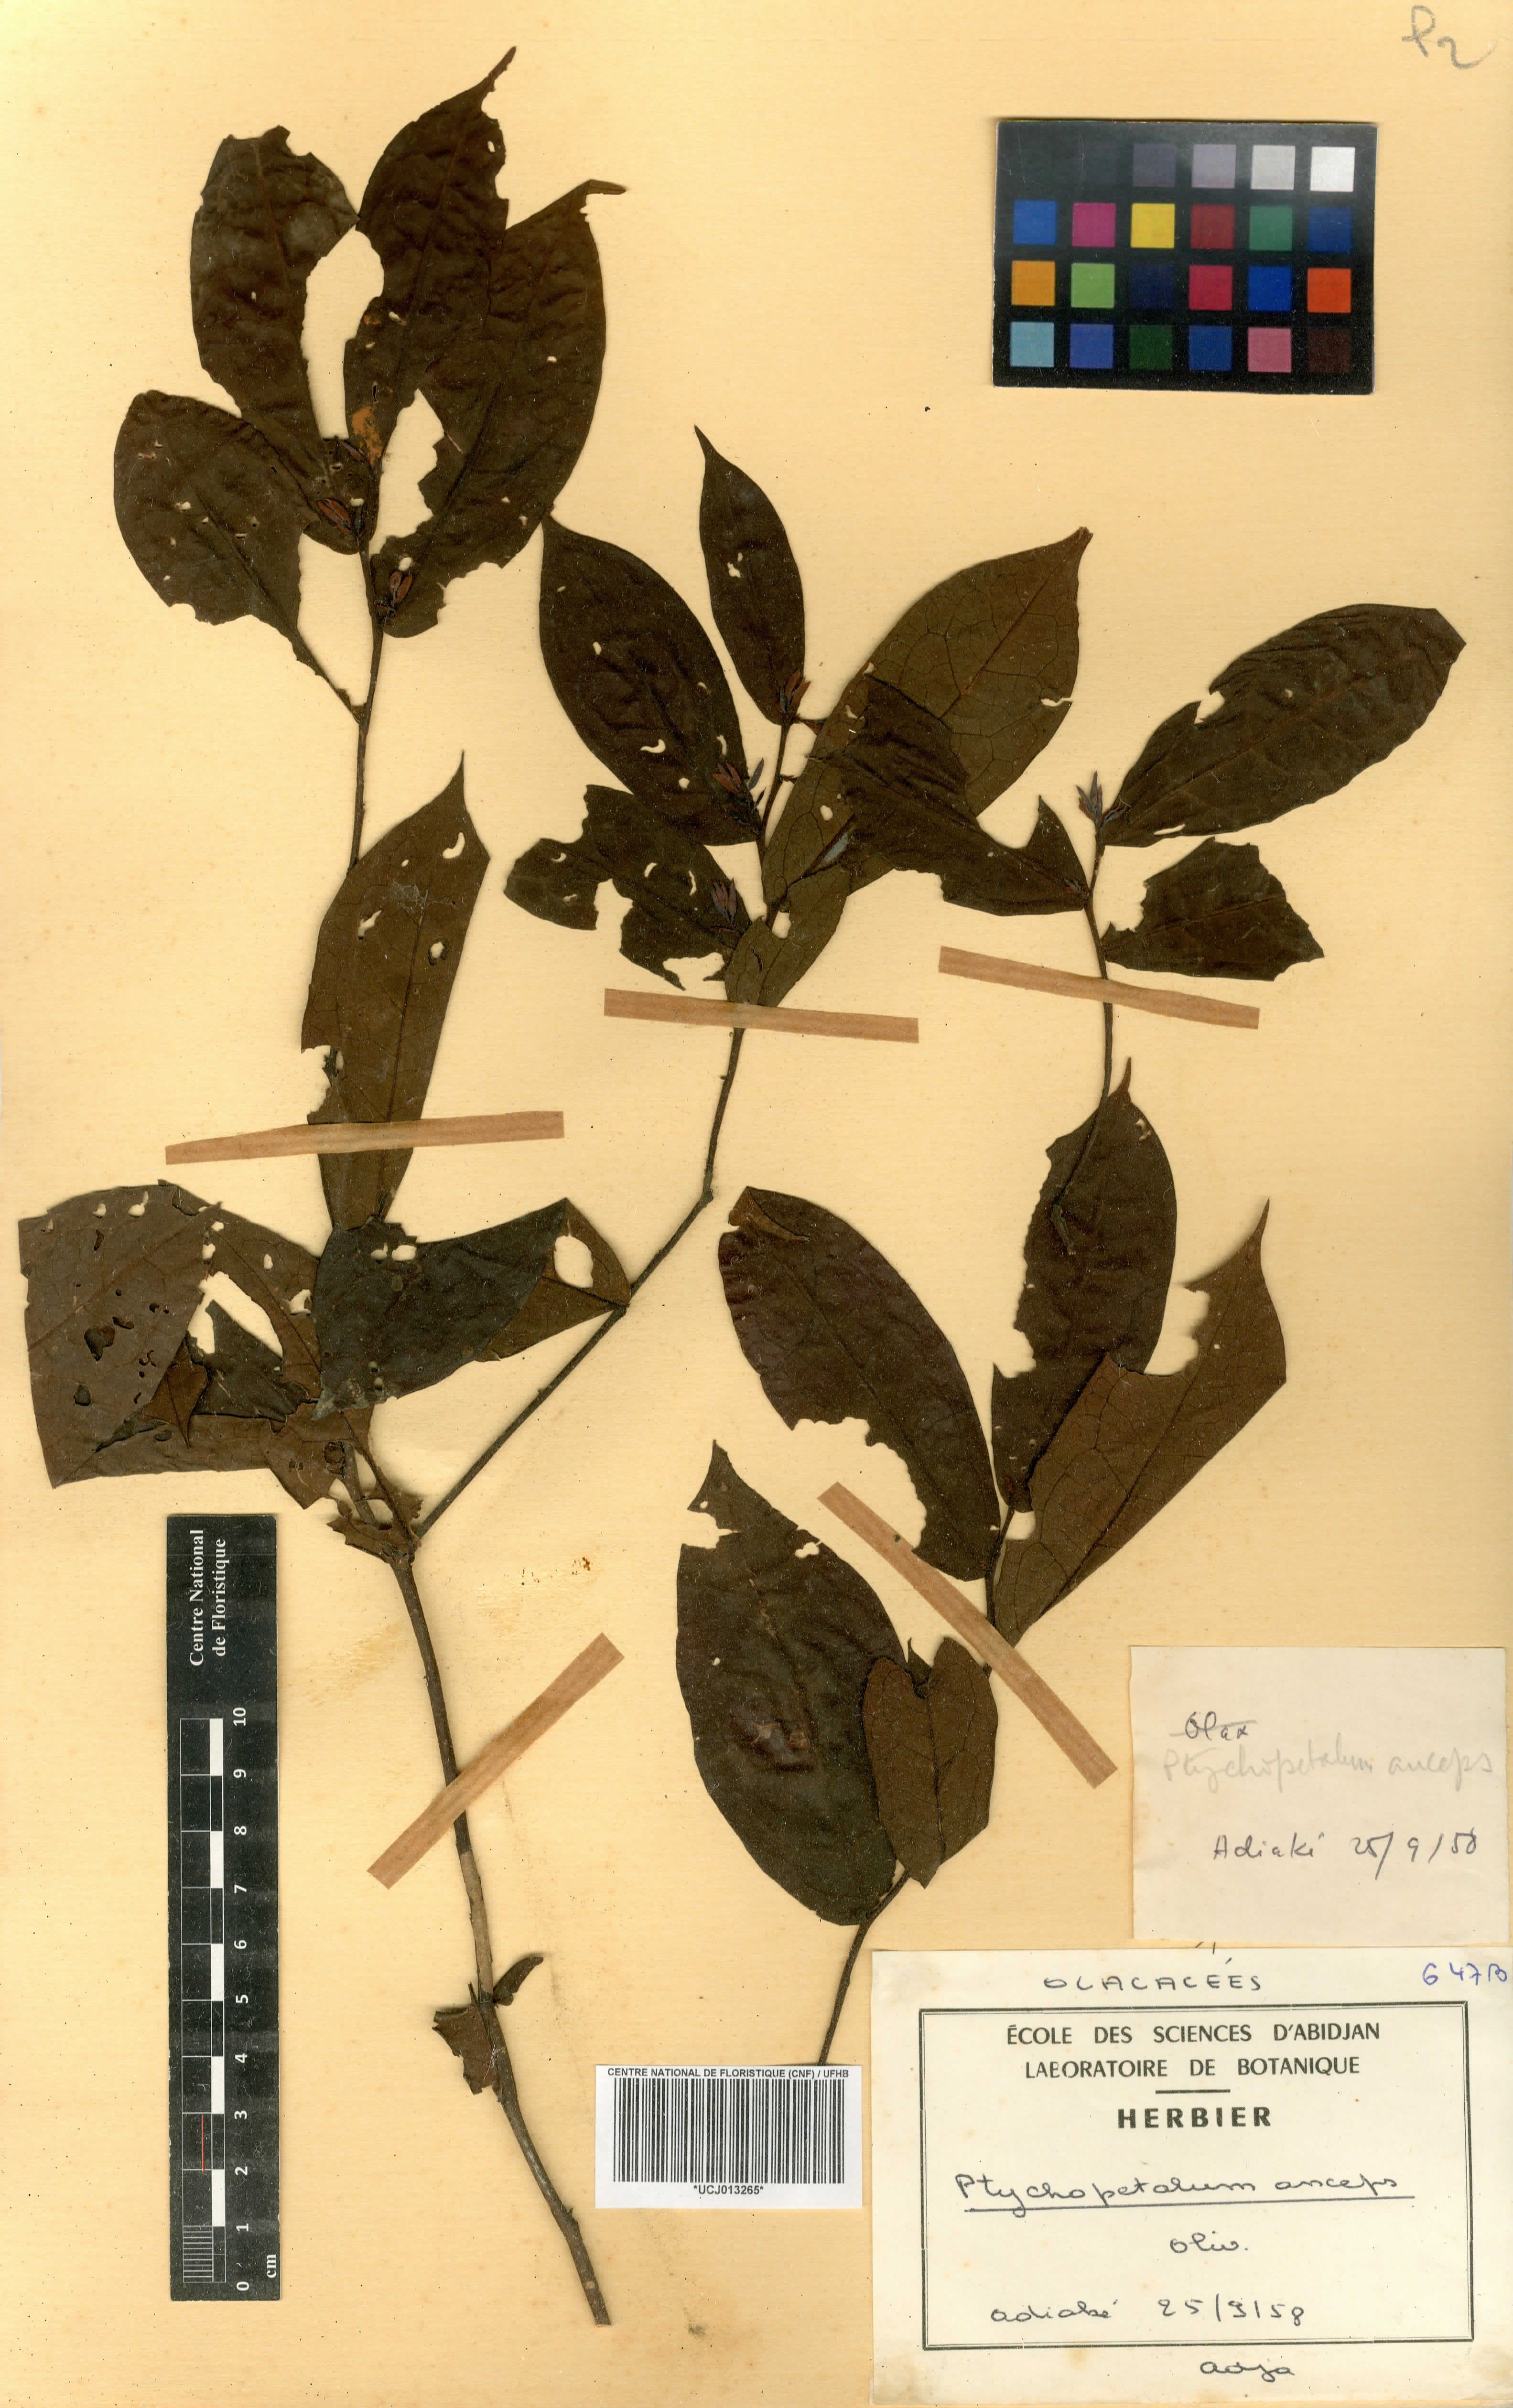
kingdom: Plantae
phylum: Tracheophyta
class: Magnoliopsida
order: Santalales
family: Olacaceae
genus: Ptychopetalum
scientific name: Ptychopetalum anceps
